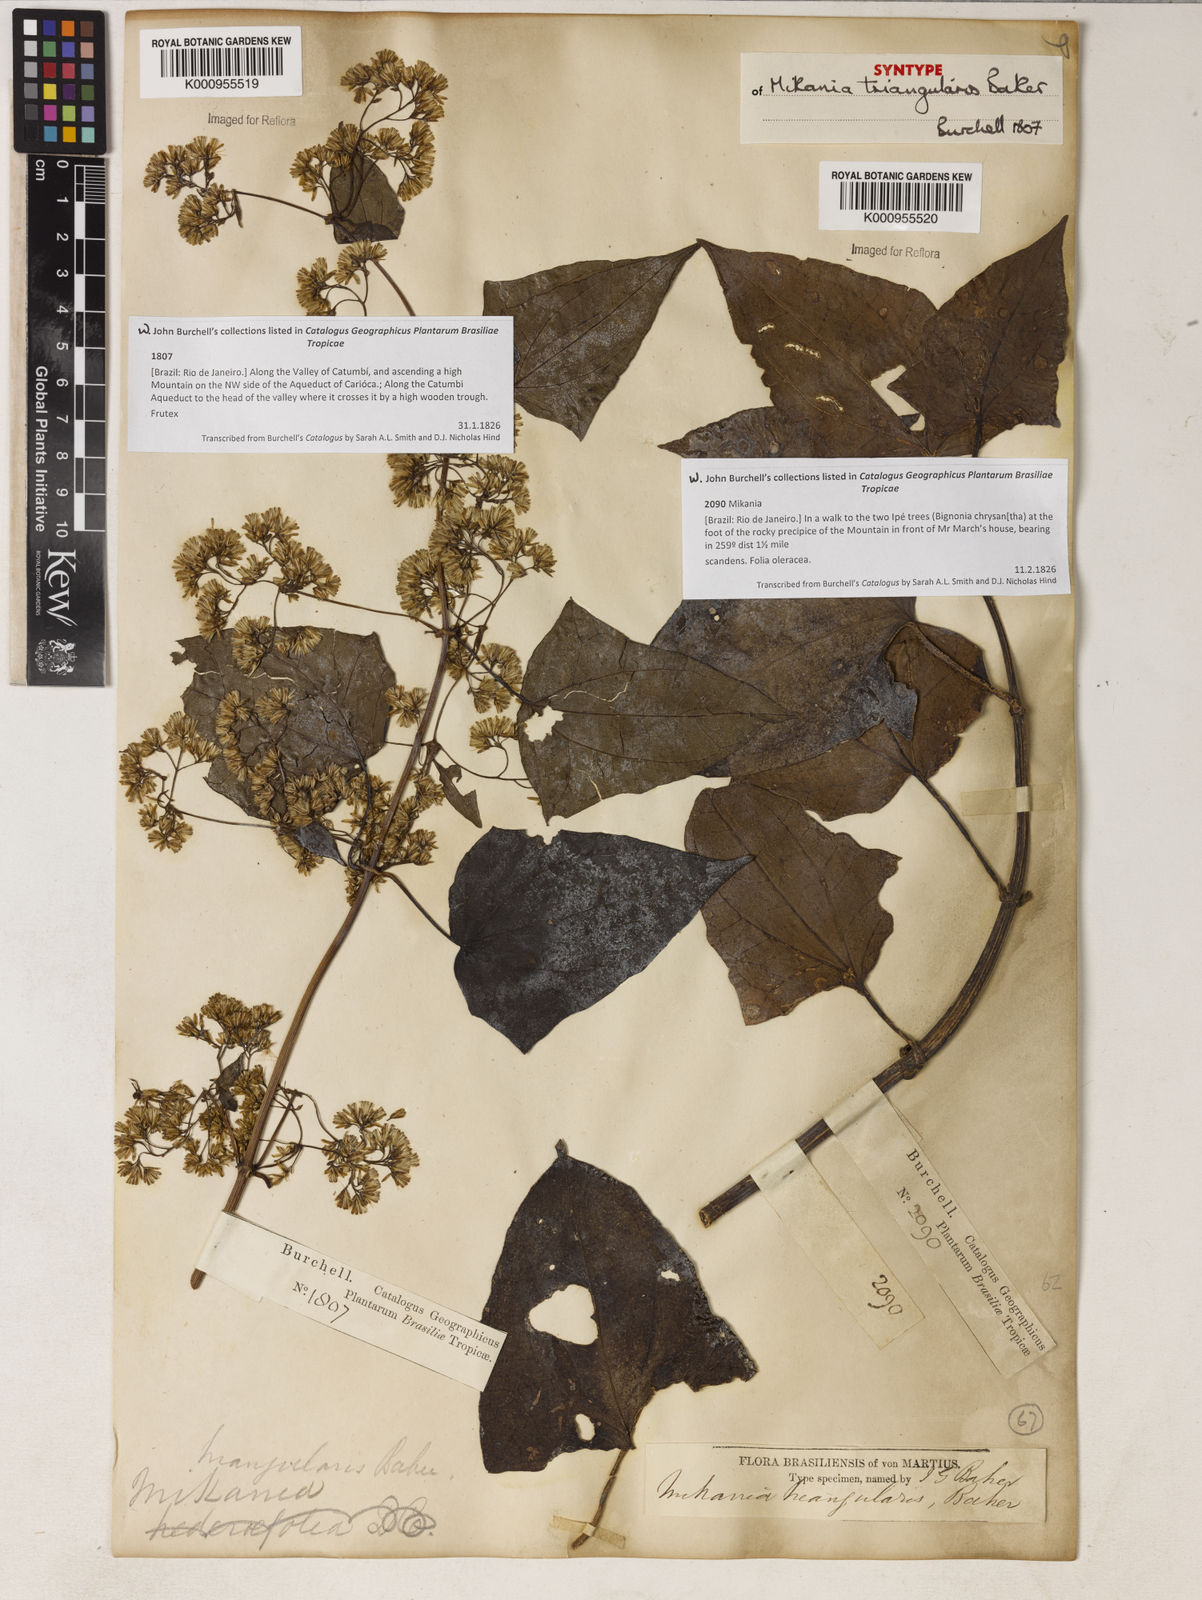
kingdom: Plantae
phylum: Tracheophyta
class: Magnoliopsida
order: Asterales
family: Asteraceae
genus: Mikania
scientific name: Mikania triangularis
